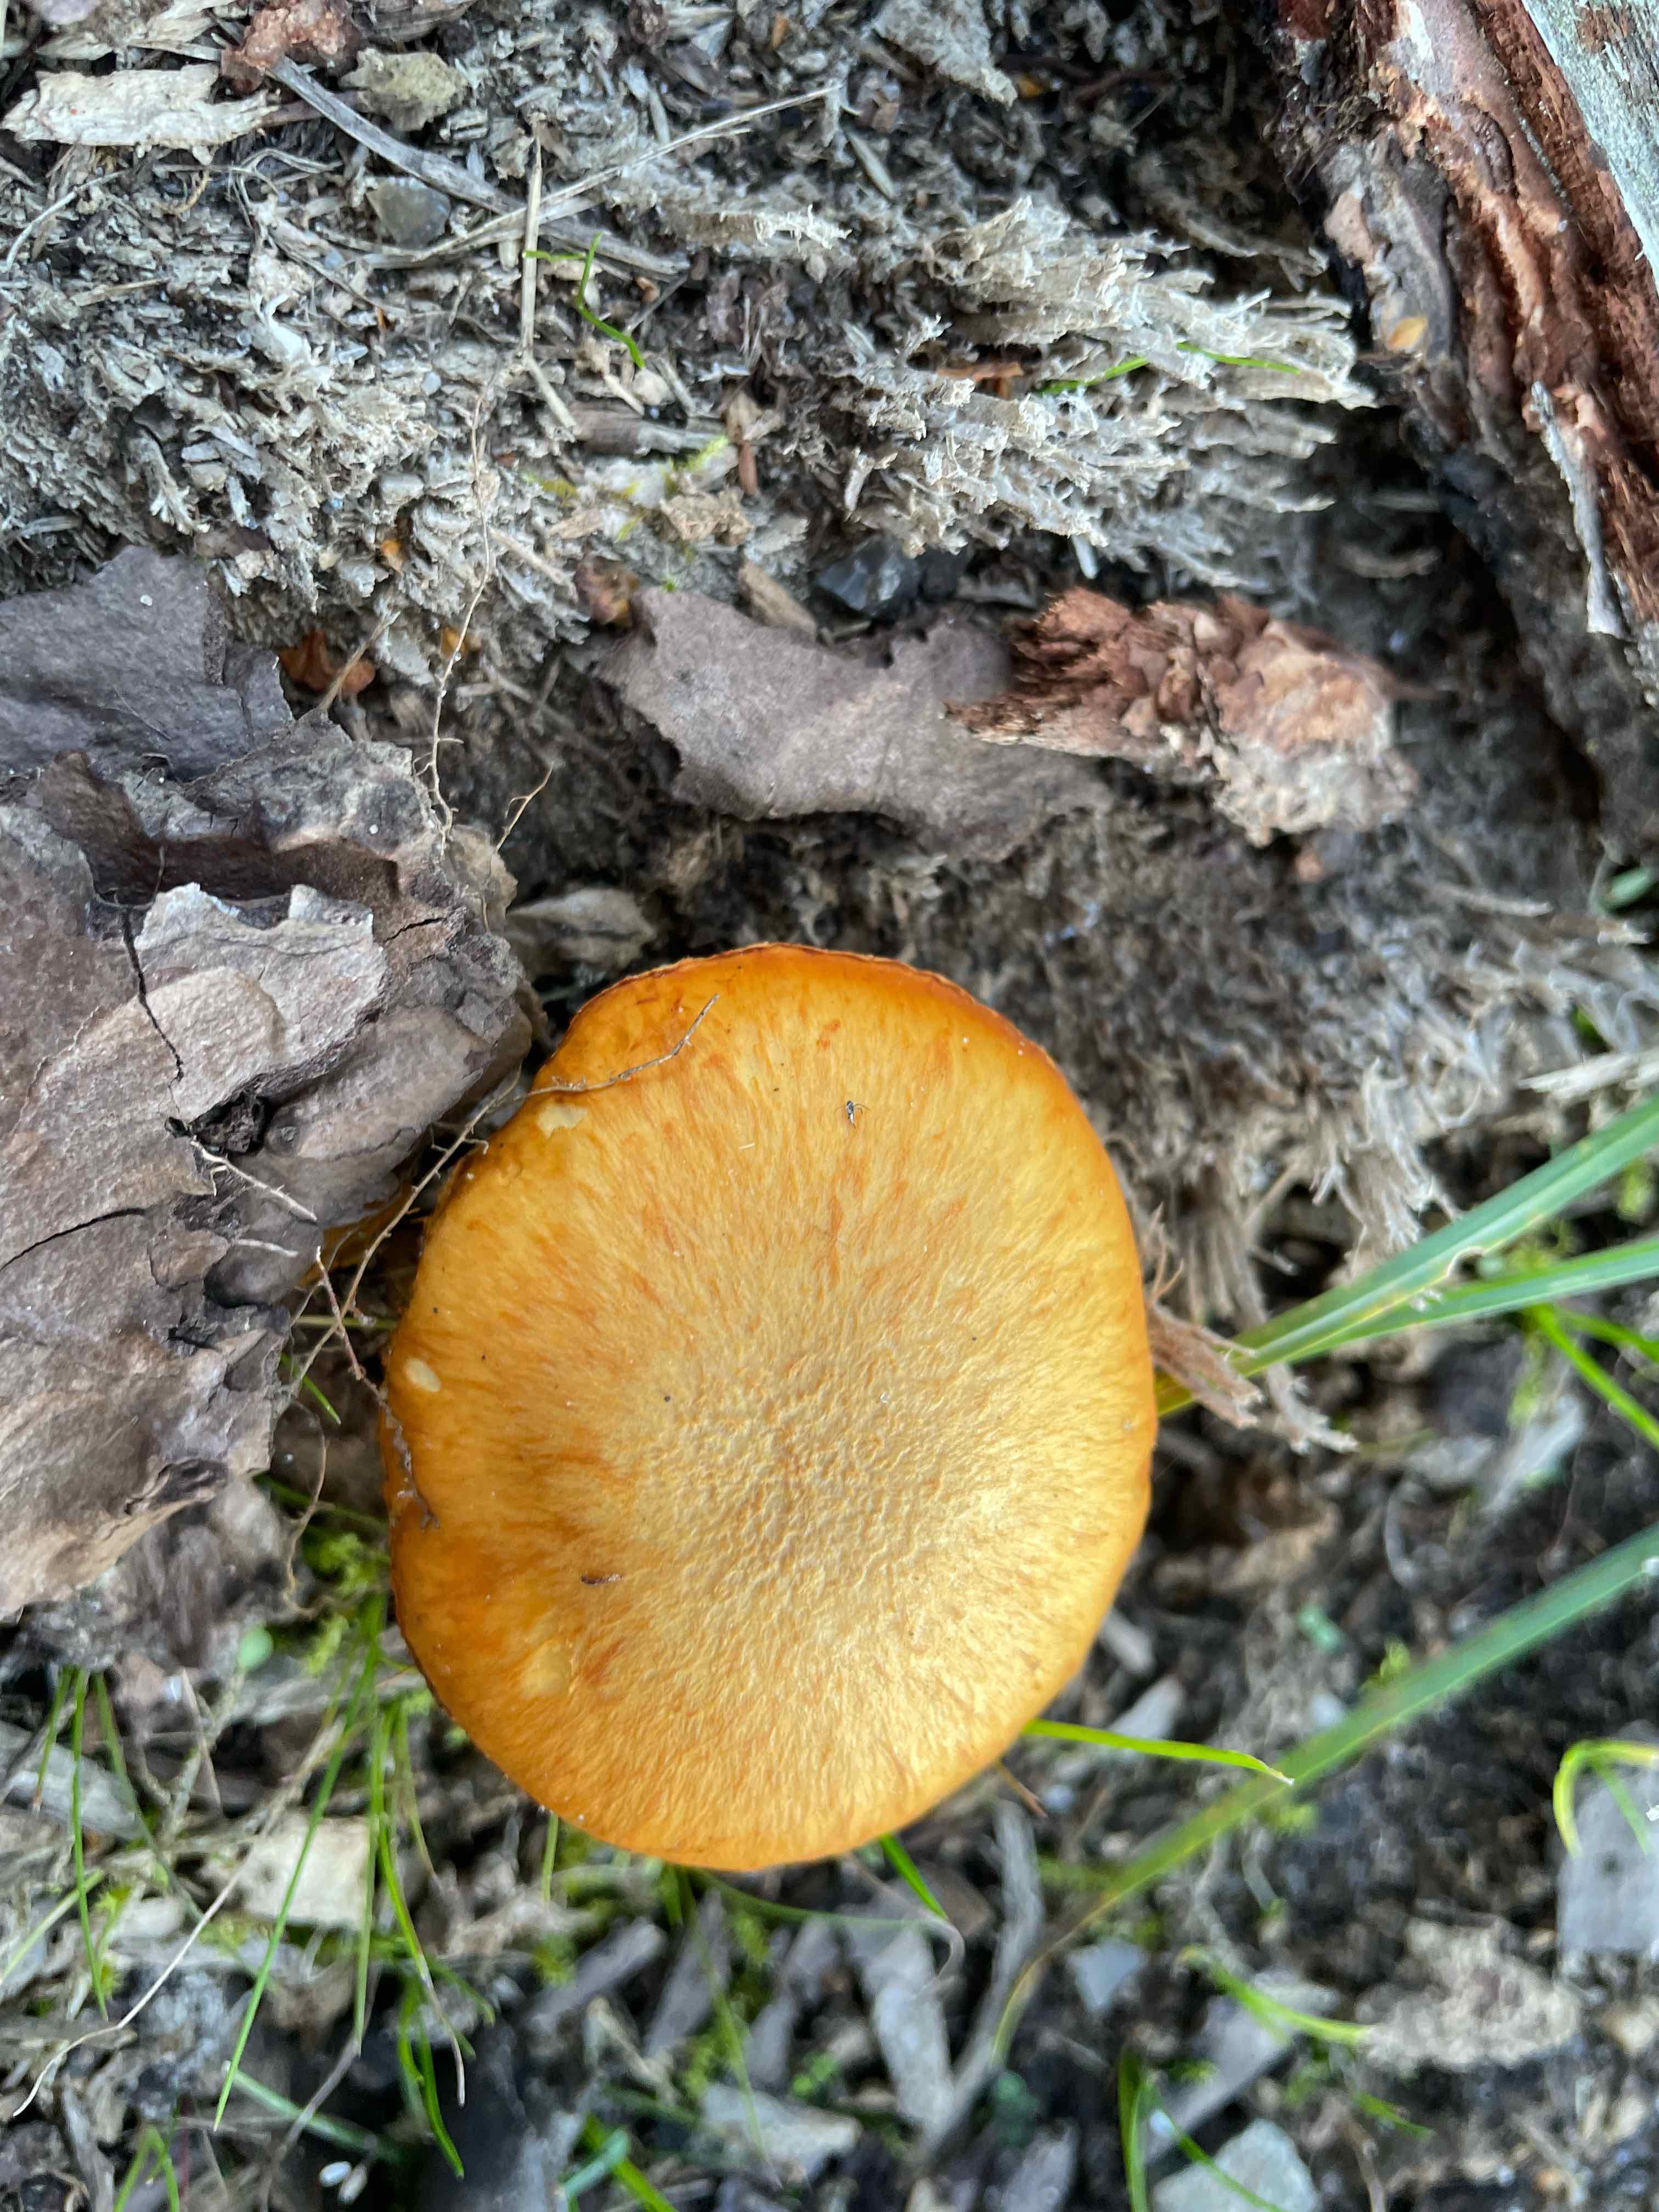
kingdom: Fungi
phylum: Basidiomycota
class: Agaricomycetes
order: Agaricales
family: Hymenogastraceae
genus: Gymnopilus
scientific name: Gymnopilus spectabilis
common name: fibret flammehat
